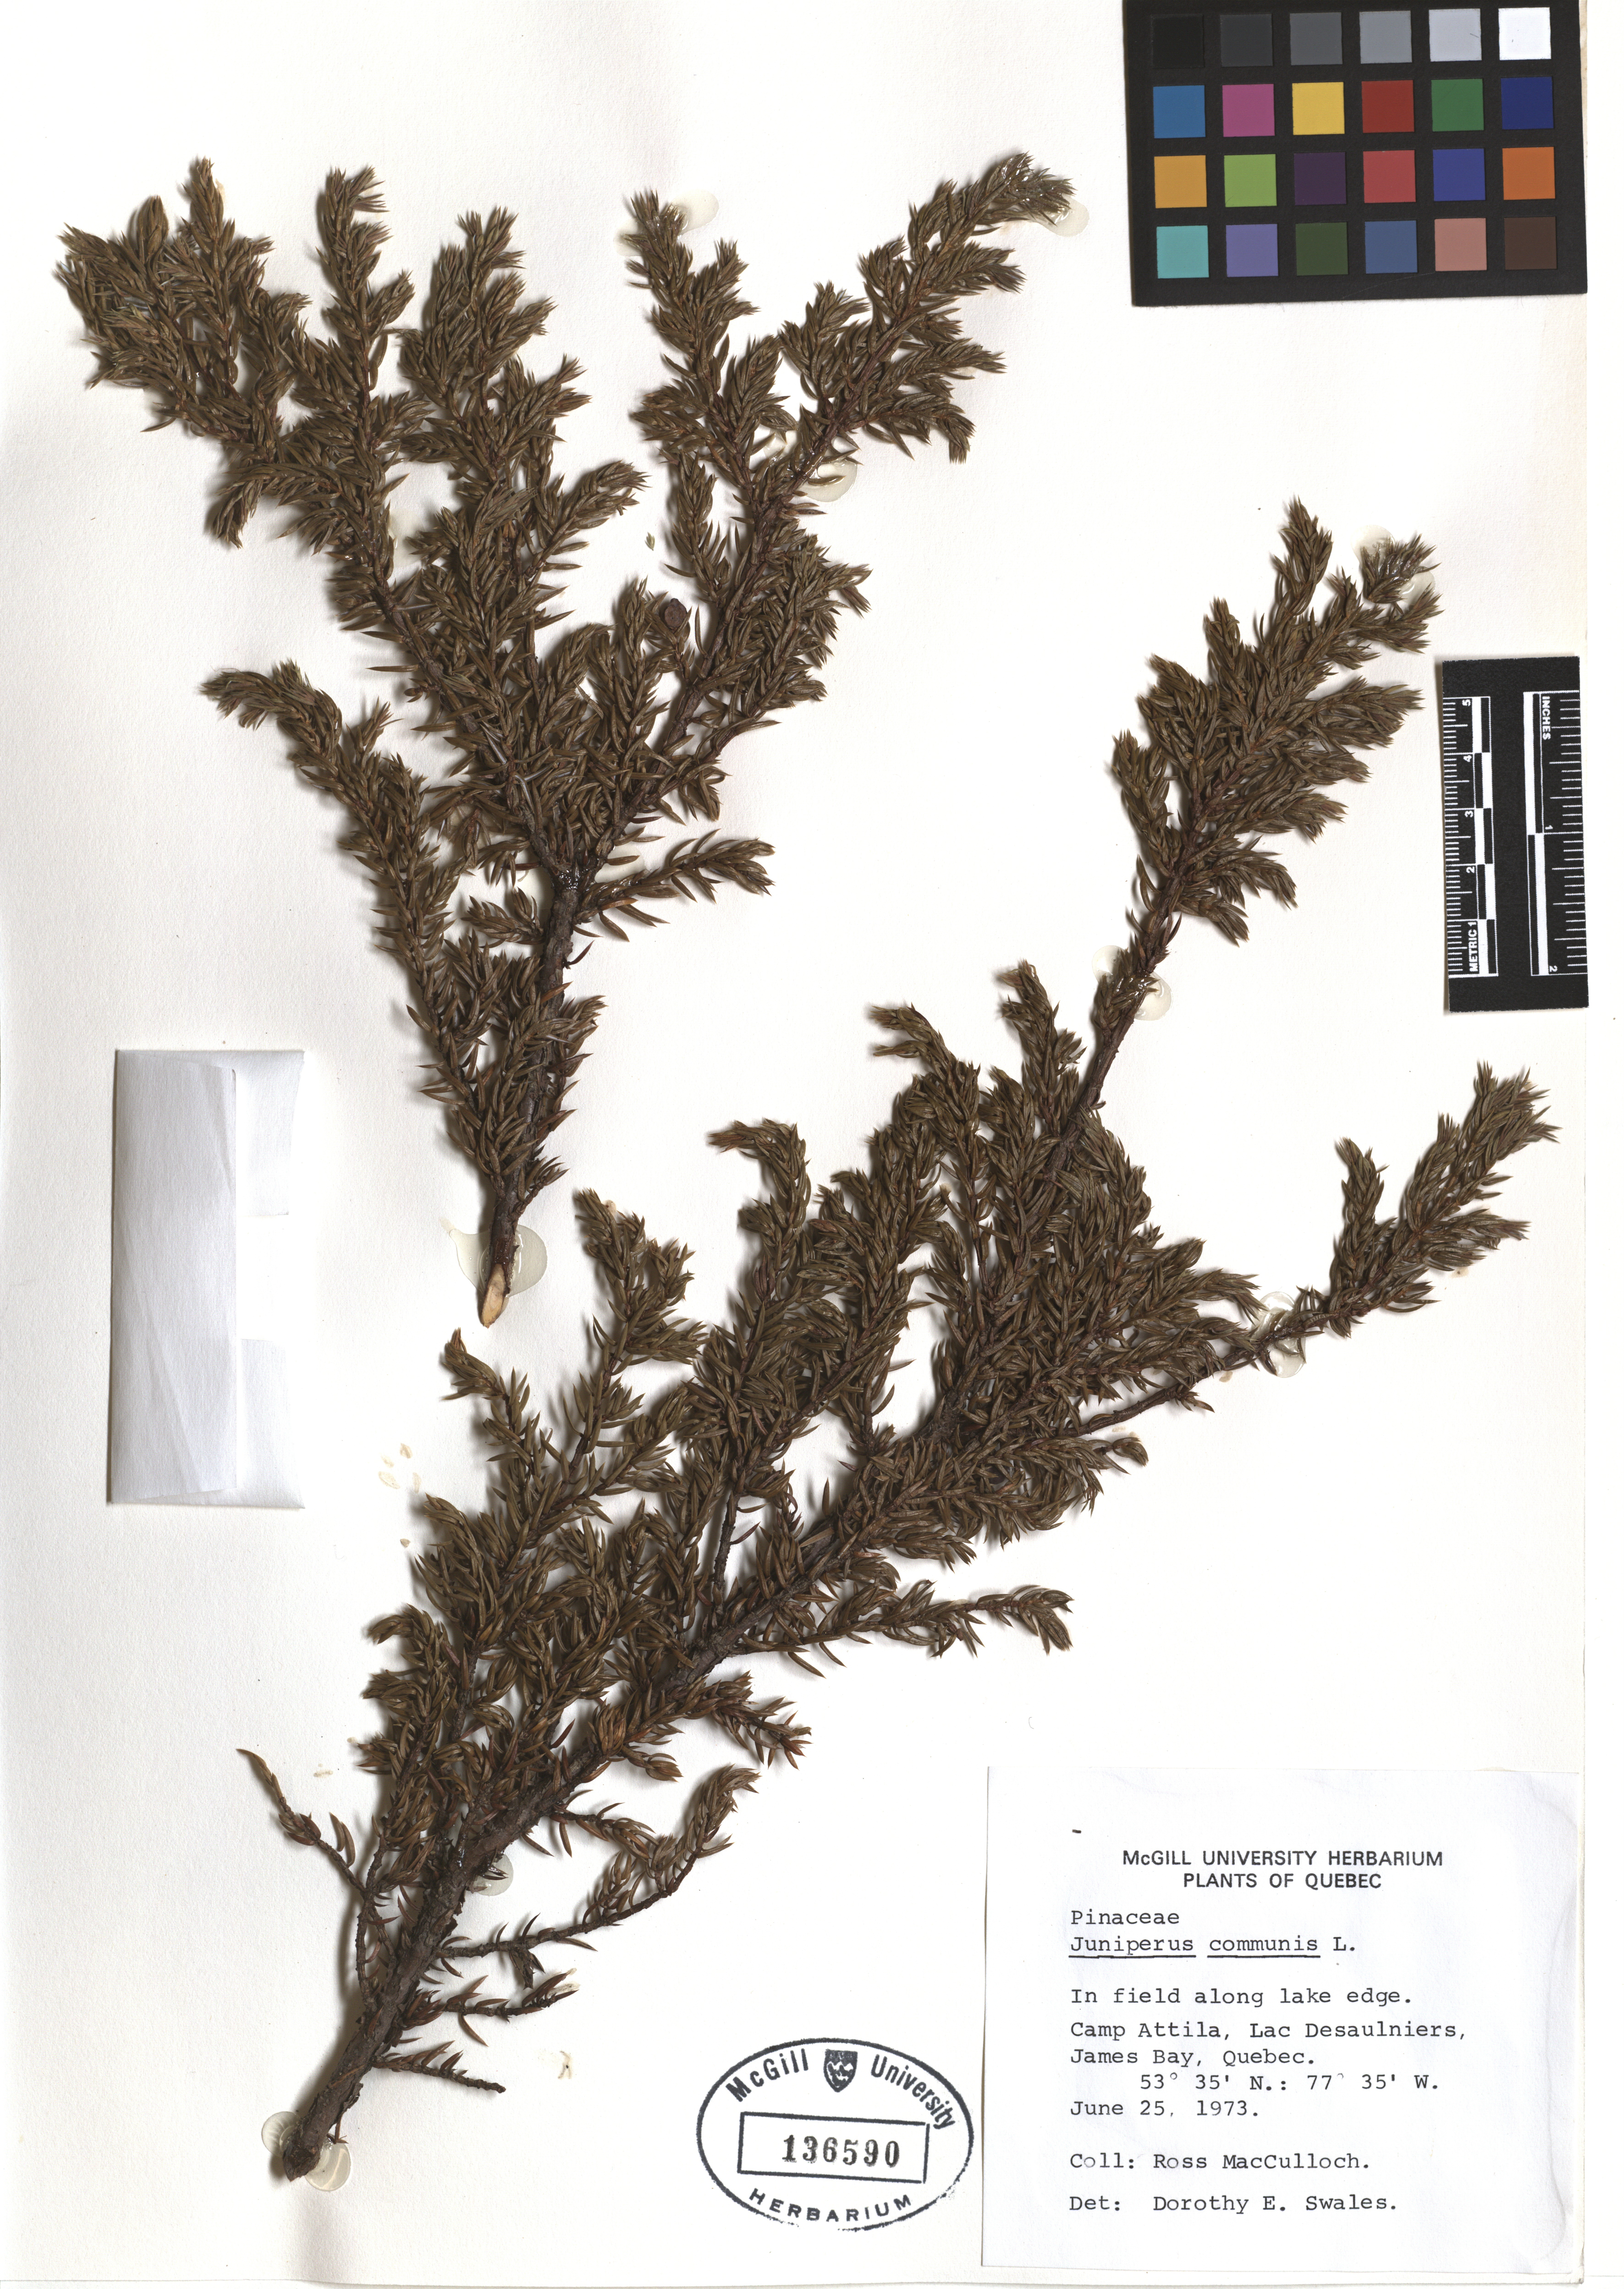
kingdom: Plantae
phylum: Tracheophyta
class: Pinopsida
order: Pinales
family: Cupressaceae
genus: Juniperus
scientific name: Juniperus communis
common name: Common juniper
